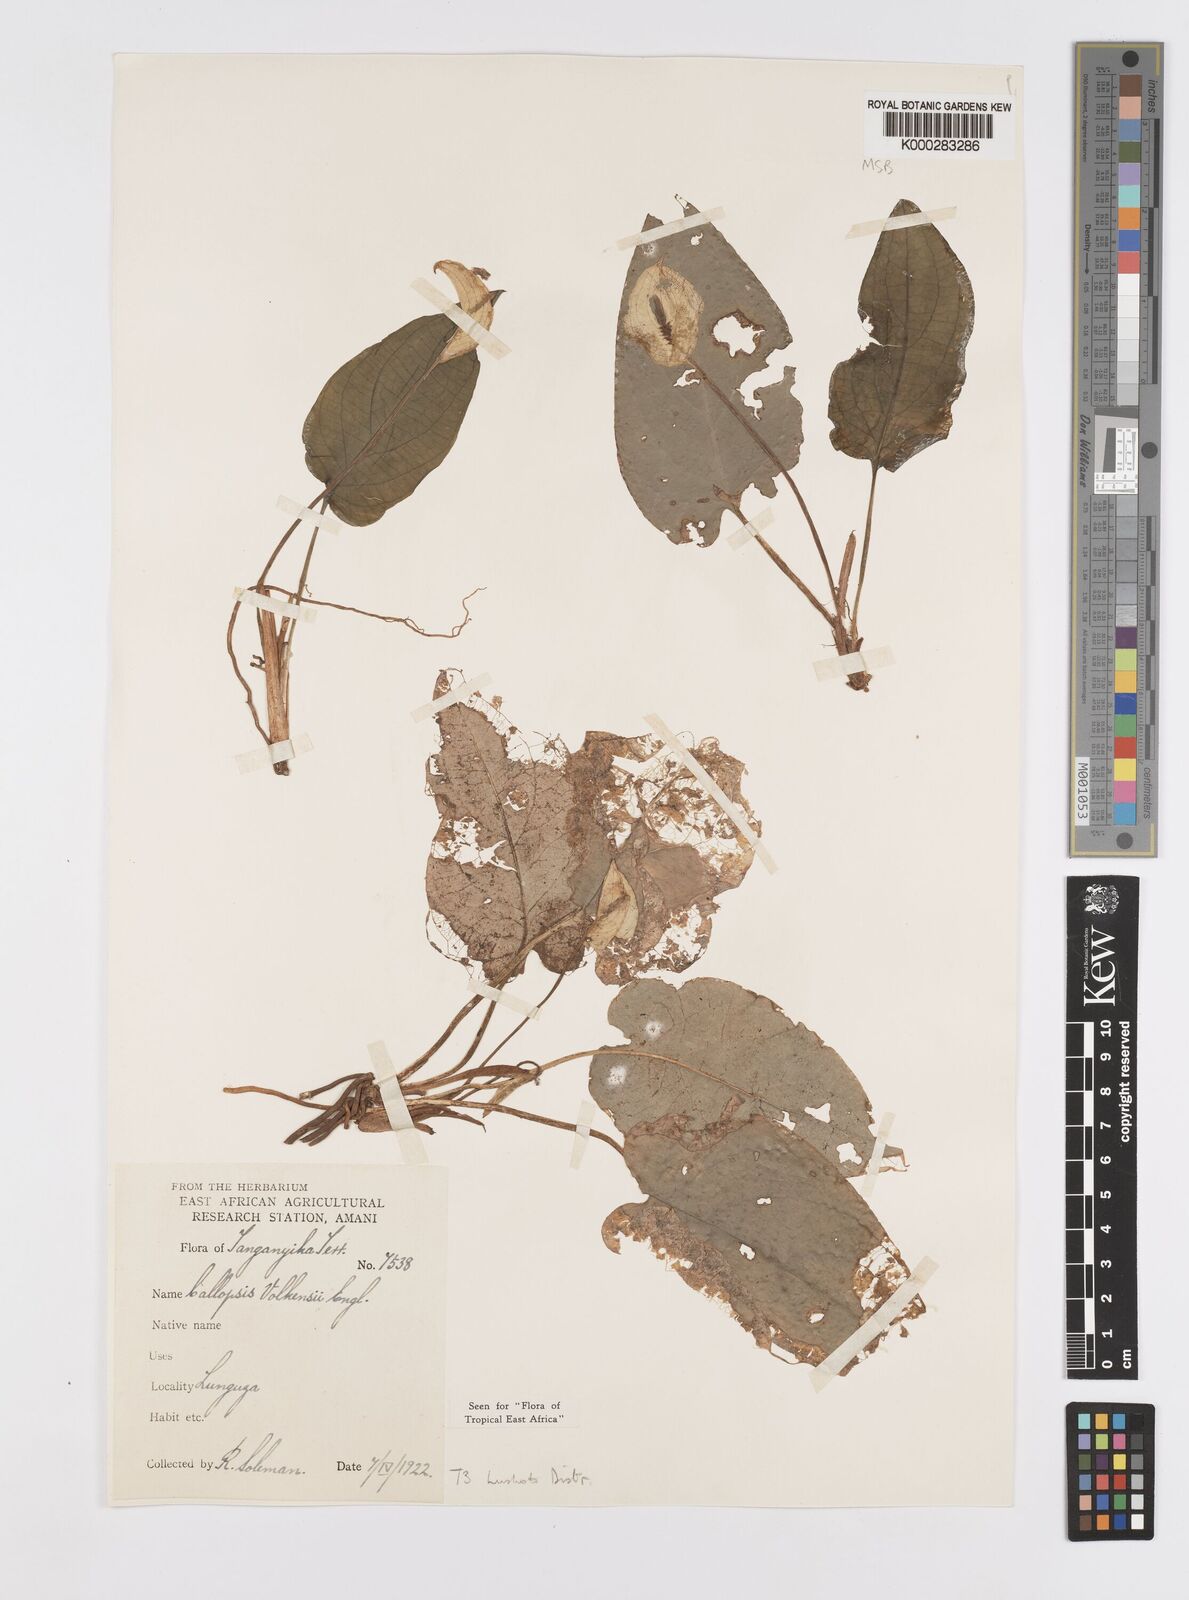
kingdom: Plantae
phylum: Tracheophyta
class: Liliopsida
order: Alismatales
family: Araceae
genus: Callopsis
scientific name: Callopsis volkensii
